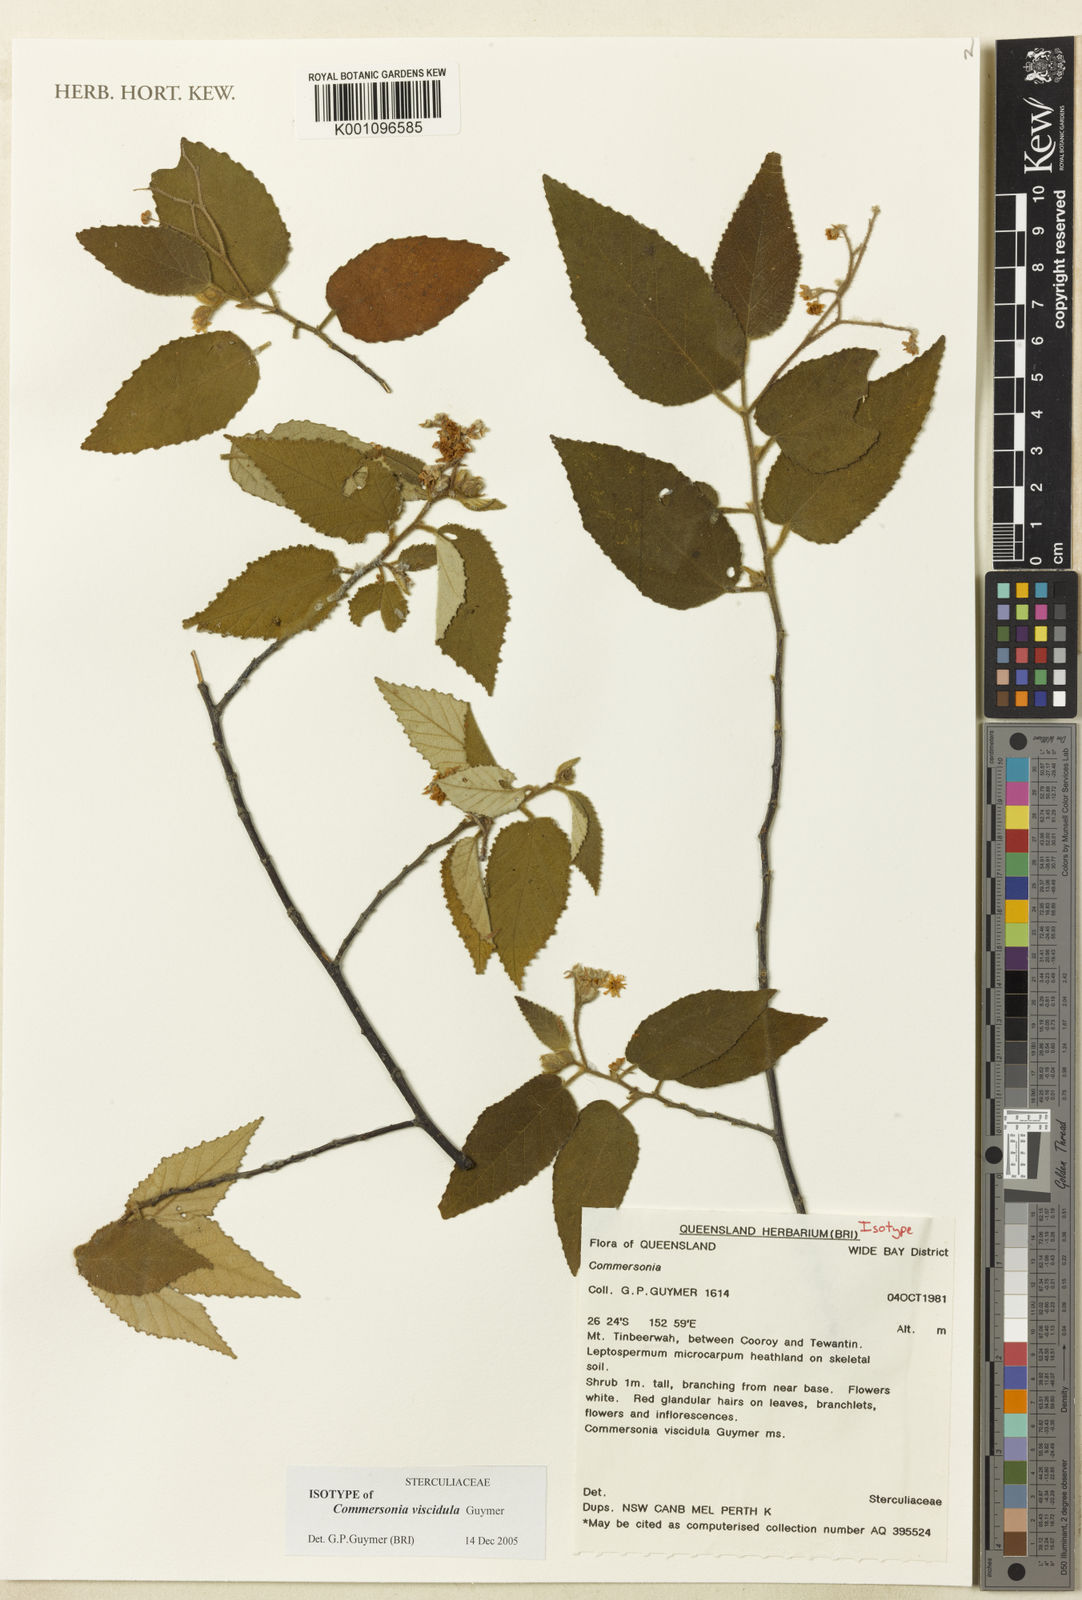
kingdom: Plantae
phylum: Tracheophyta
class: Magnoliopsida
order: Malvales
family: Malvaceae
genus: Androcalva
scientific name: Androcalva viscidula
